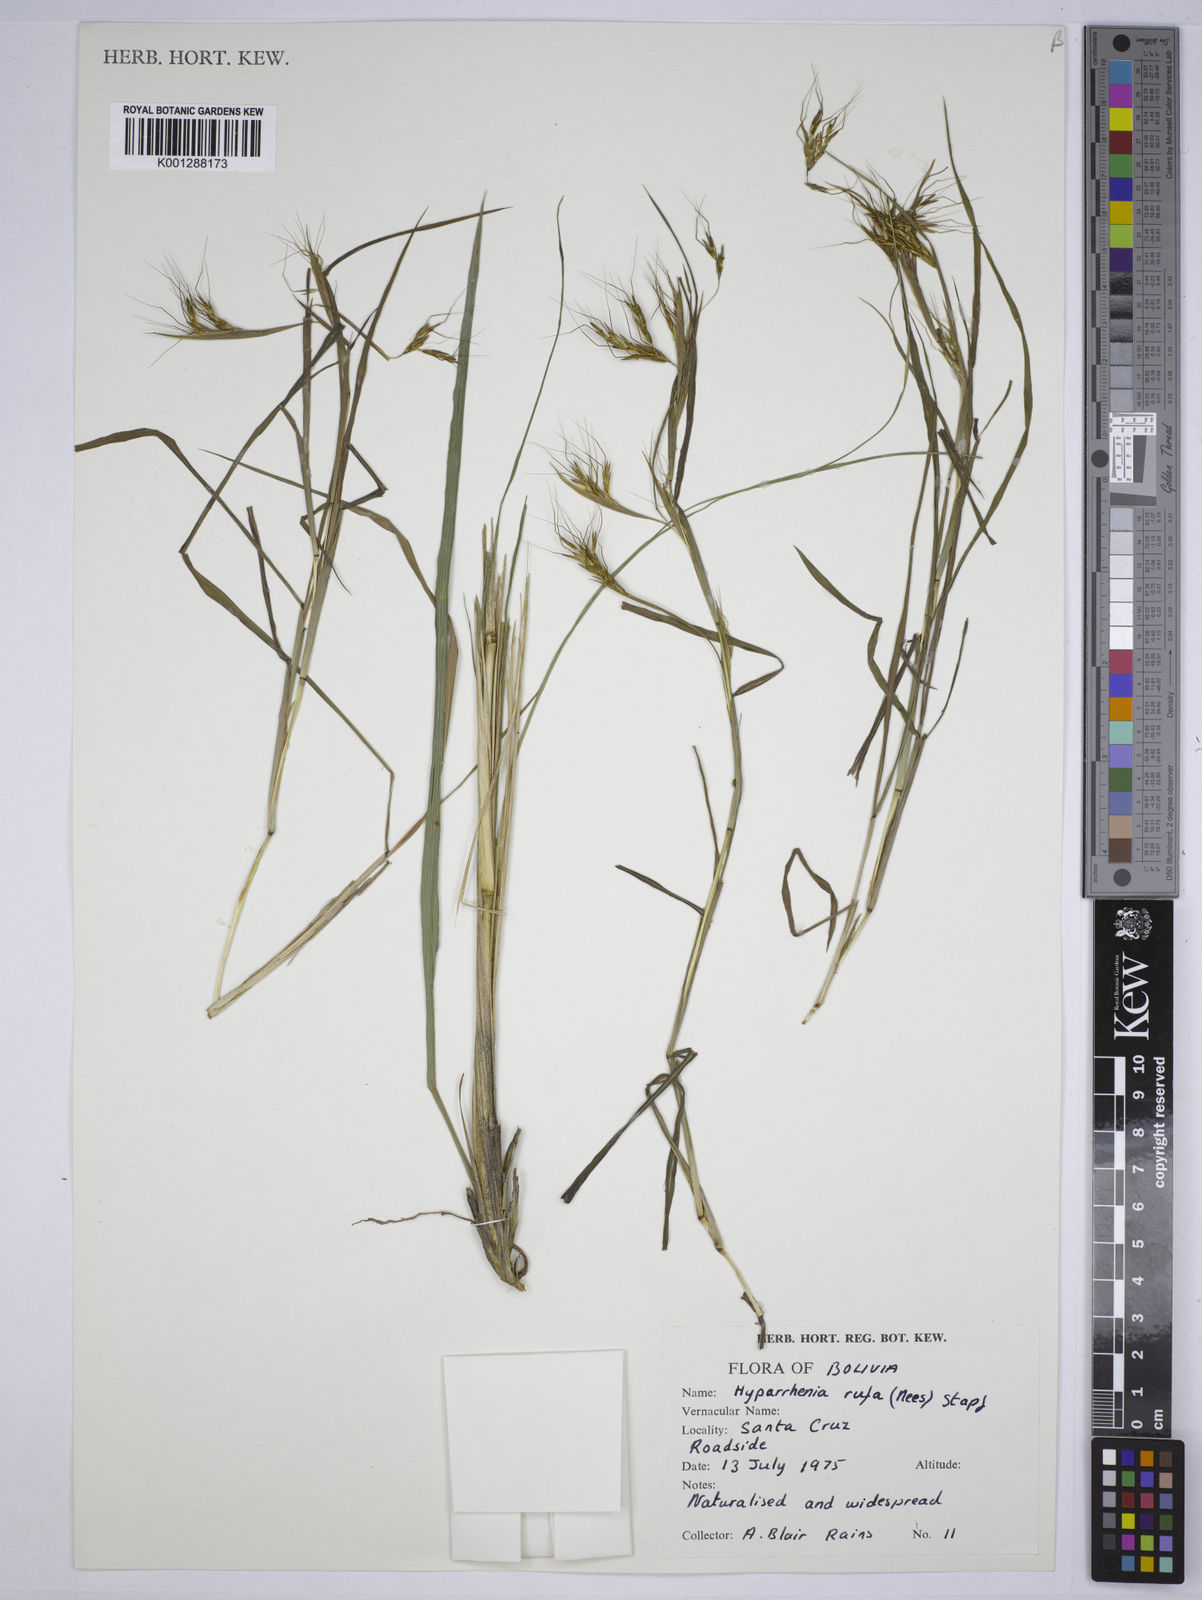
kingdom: Plantae
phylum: Tracheophyta
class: Liliopsida
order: Poales
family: Poaceae
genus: Hyparrhenia
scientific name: Hyparrhenia rufa
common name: Jaraguagrass
